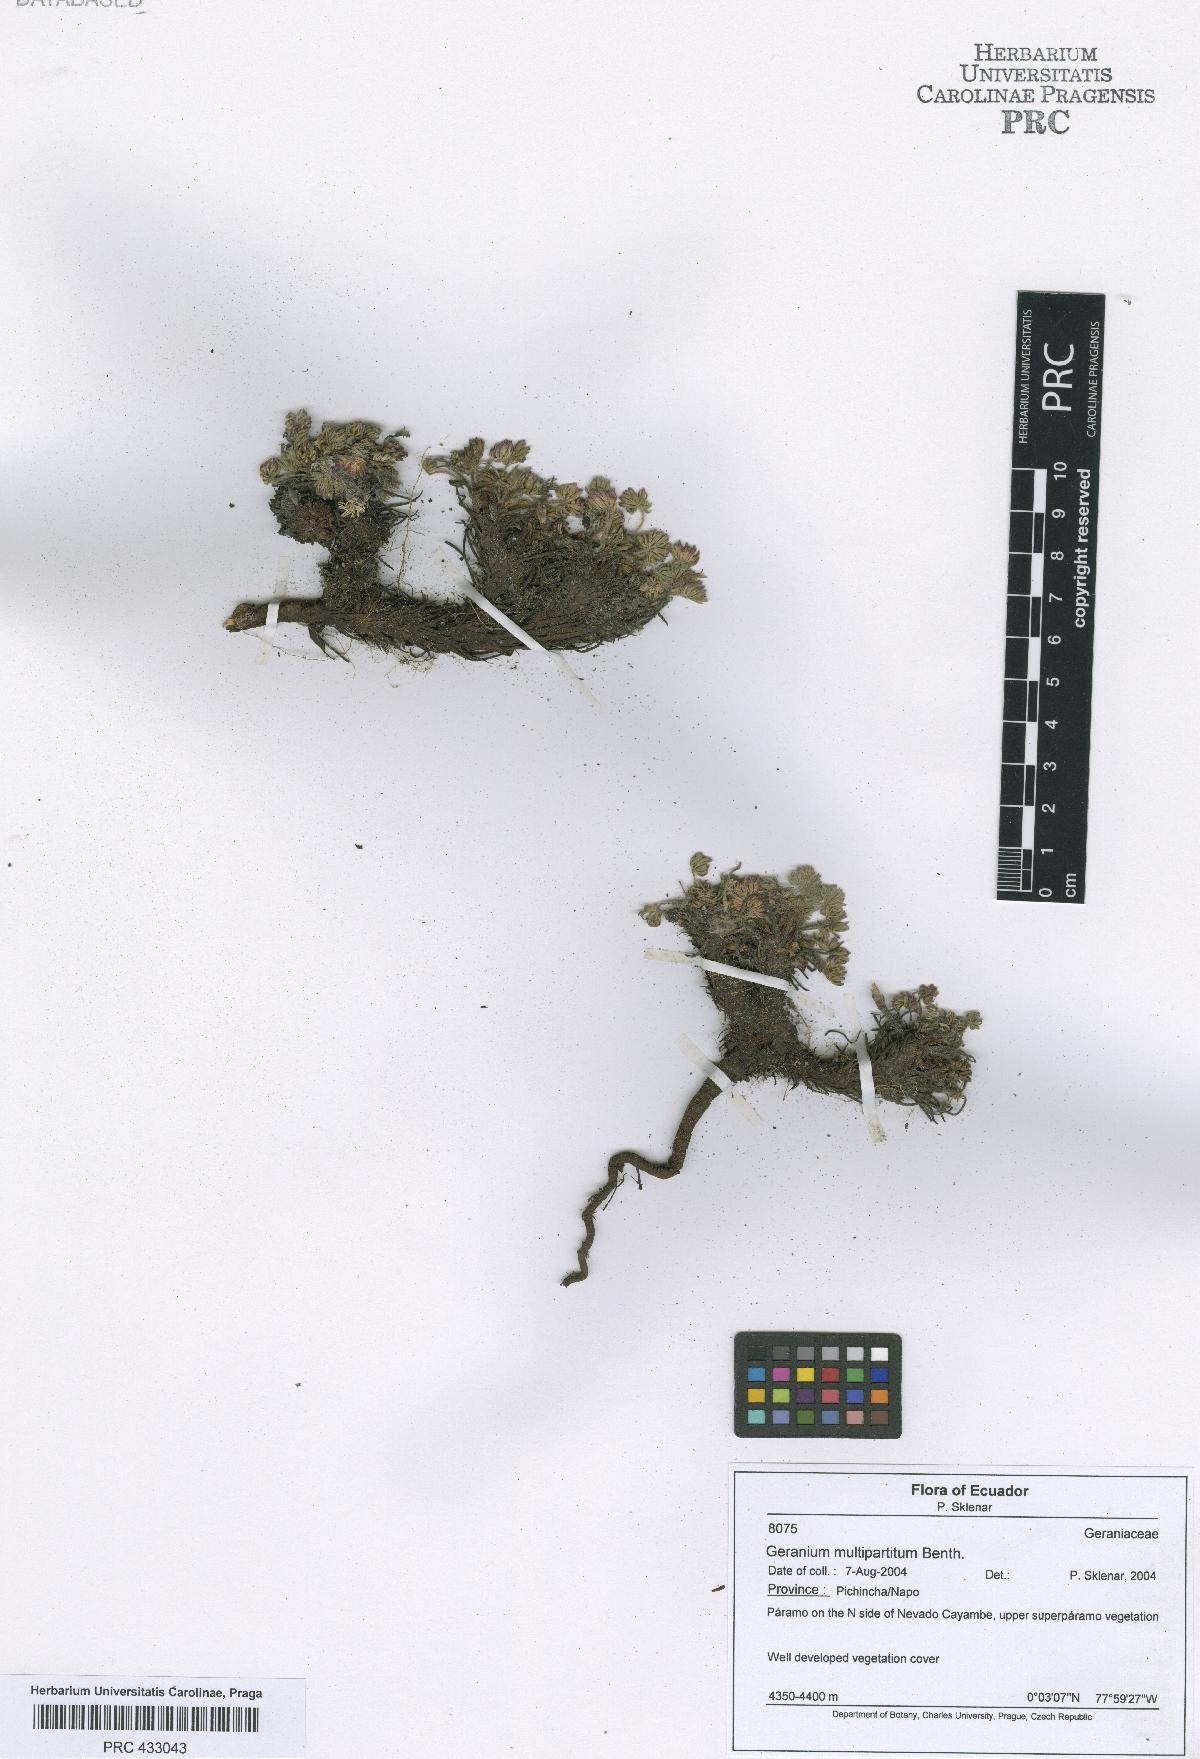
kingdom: Plantae
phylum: Tracheophyta
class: Magnoliopsida
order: Geraniales
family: Geraniaceae
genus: Geranium
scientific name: Geranium multipartitum
